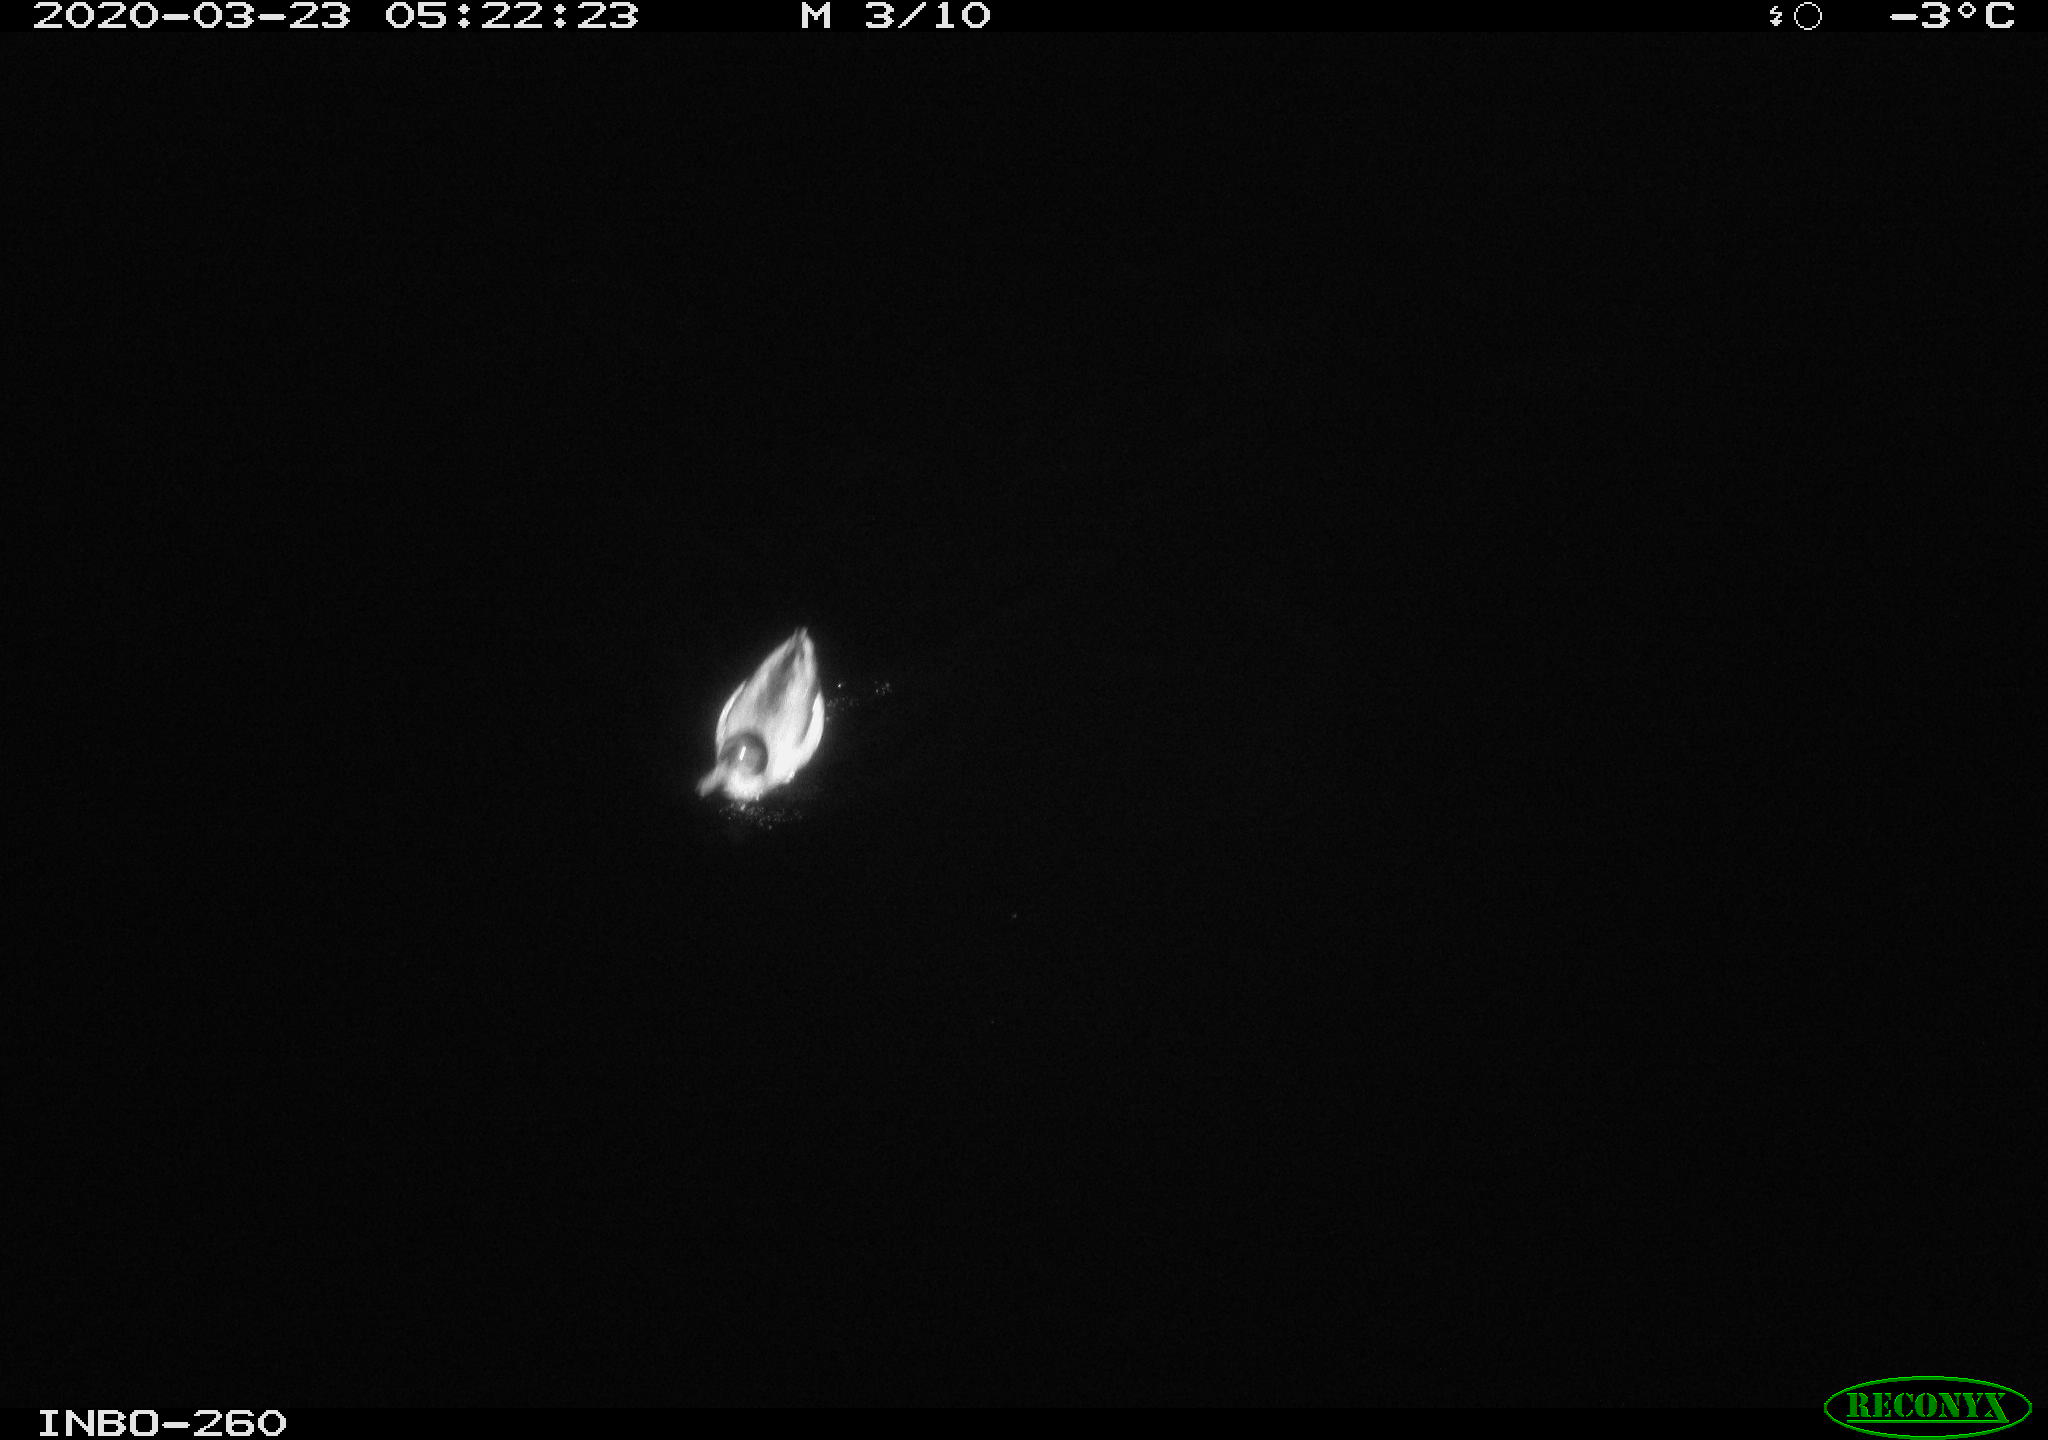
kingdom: Animalia
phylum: Chordata
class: Aves
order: Anseriformes
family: Anatidae
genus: Anas
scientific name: Anas platyrhynchos
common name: Mallard
